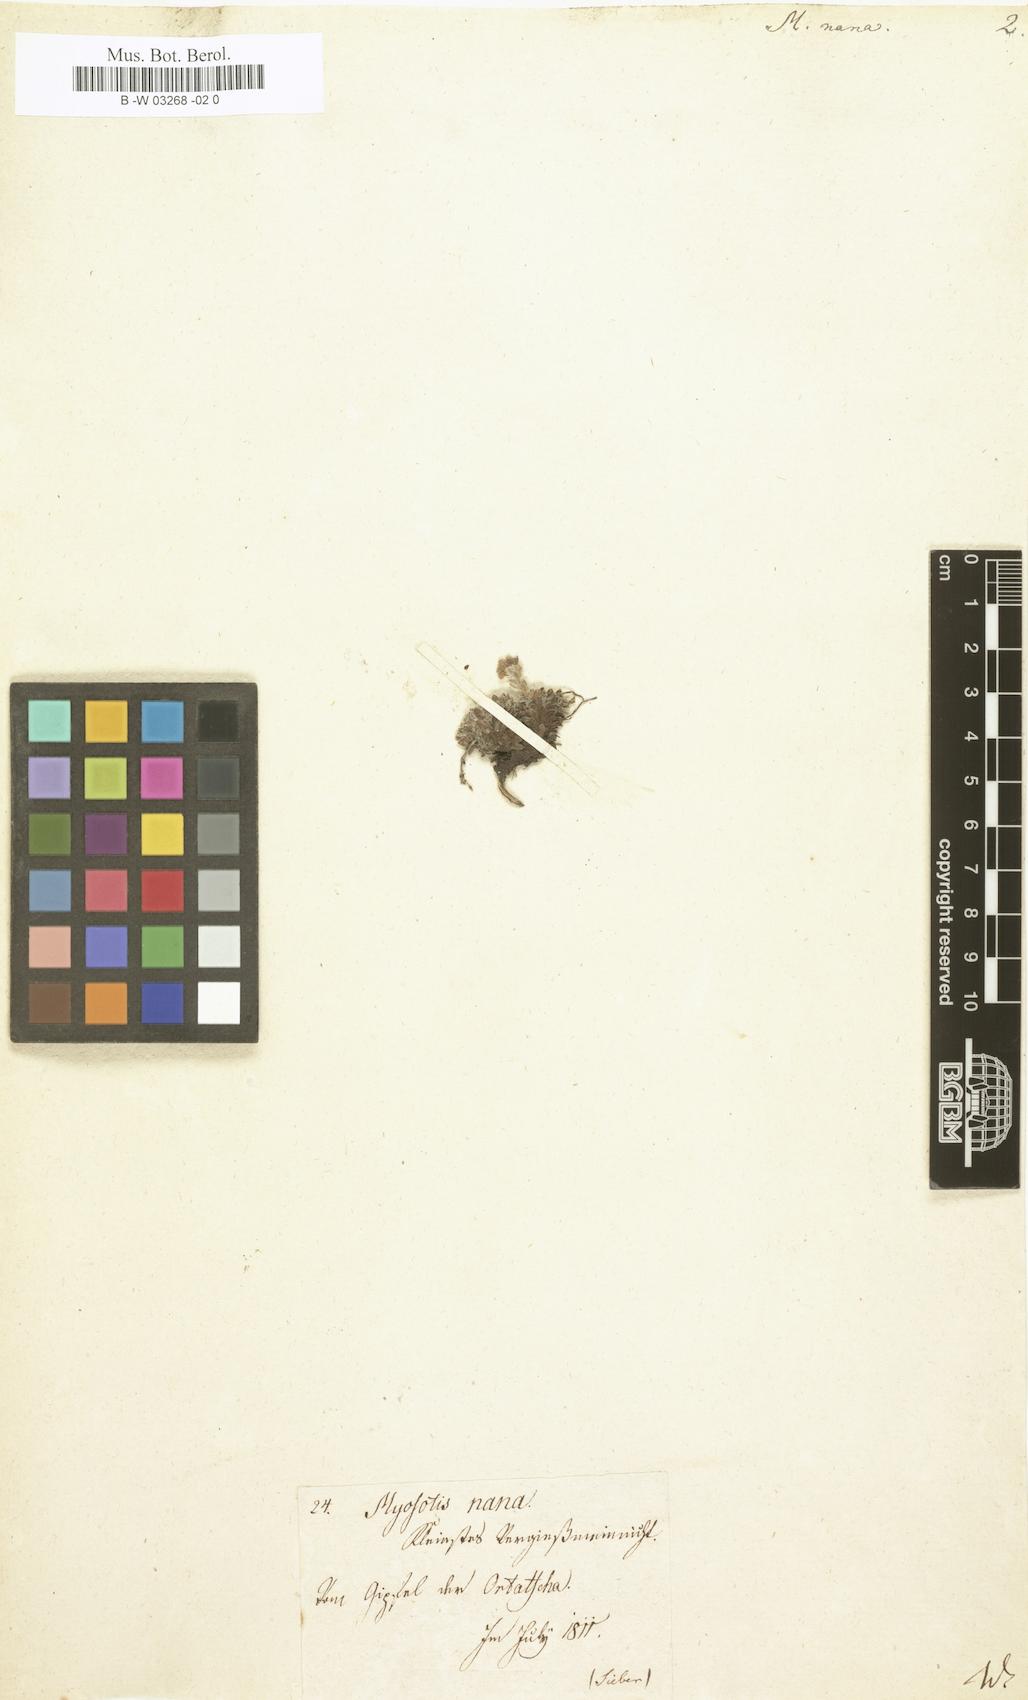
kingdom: Plantae
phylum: Tracheophyta
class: Magnoliopsida
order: Boraginales
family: Boraginaceae
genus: Eritrichium
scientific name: Eritrichium nanum
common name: King-of-the-alps
